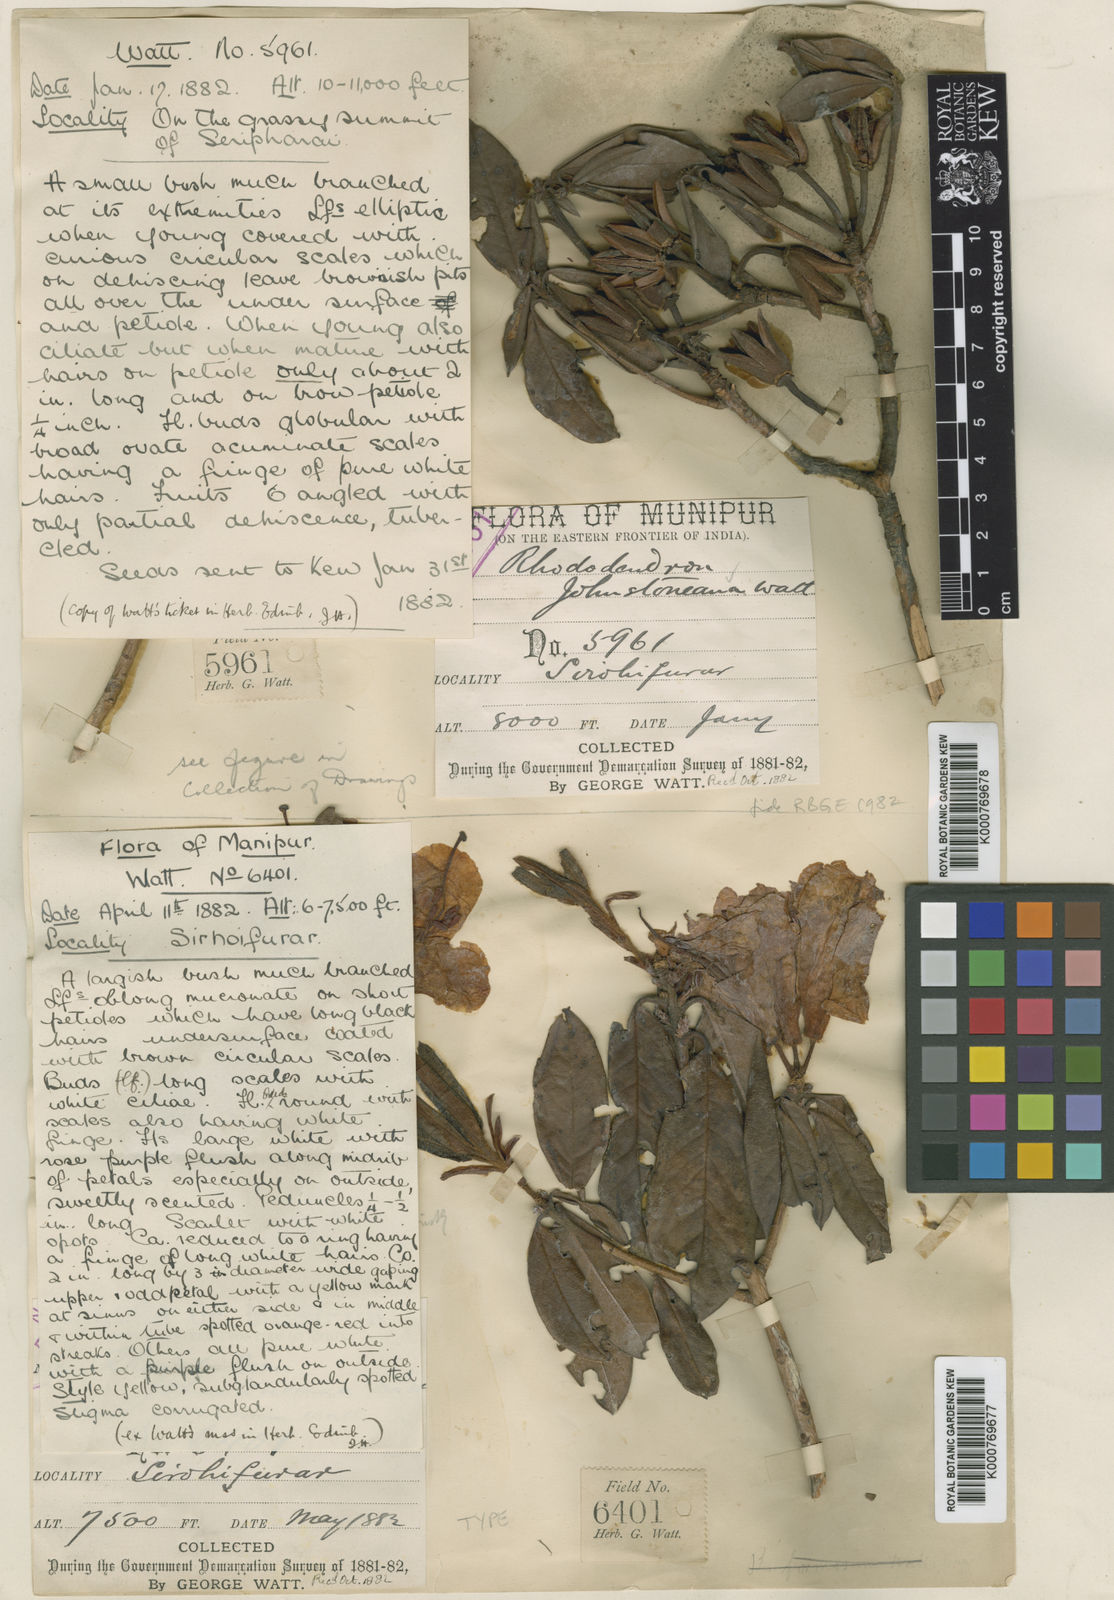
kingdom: Plantae
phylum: Tracheophyta
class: Magnoliopsida
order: Ericales
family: Ericaceae
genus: Rhododendron
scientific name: Rhododendron johnstoneanum
